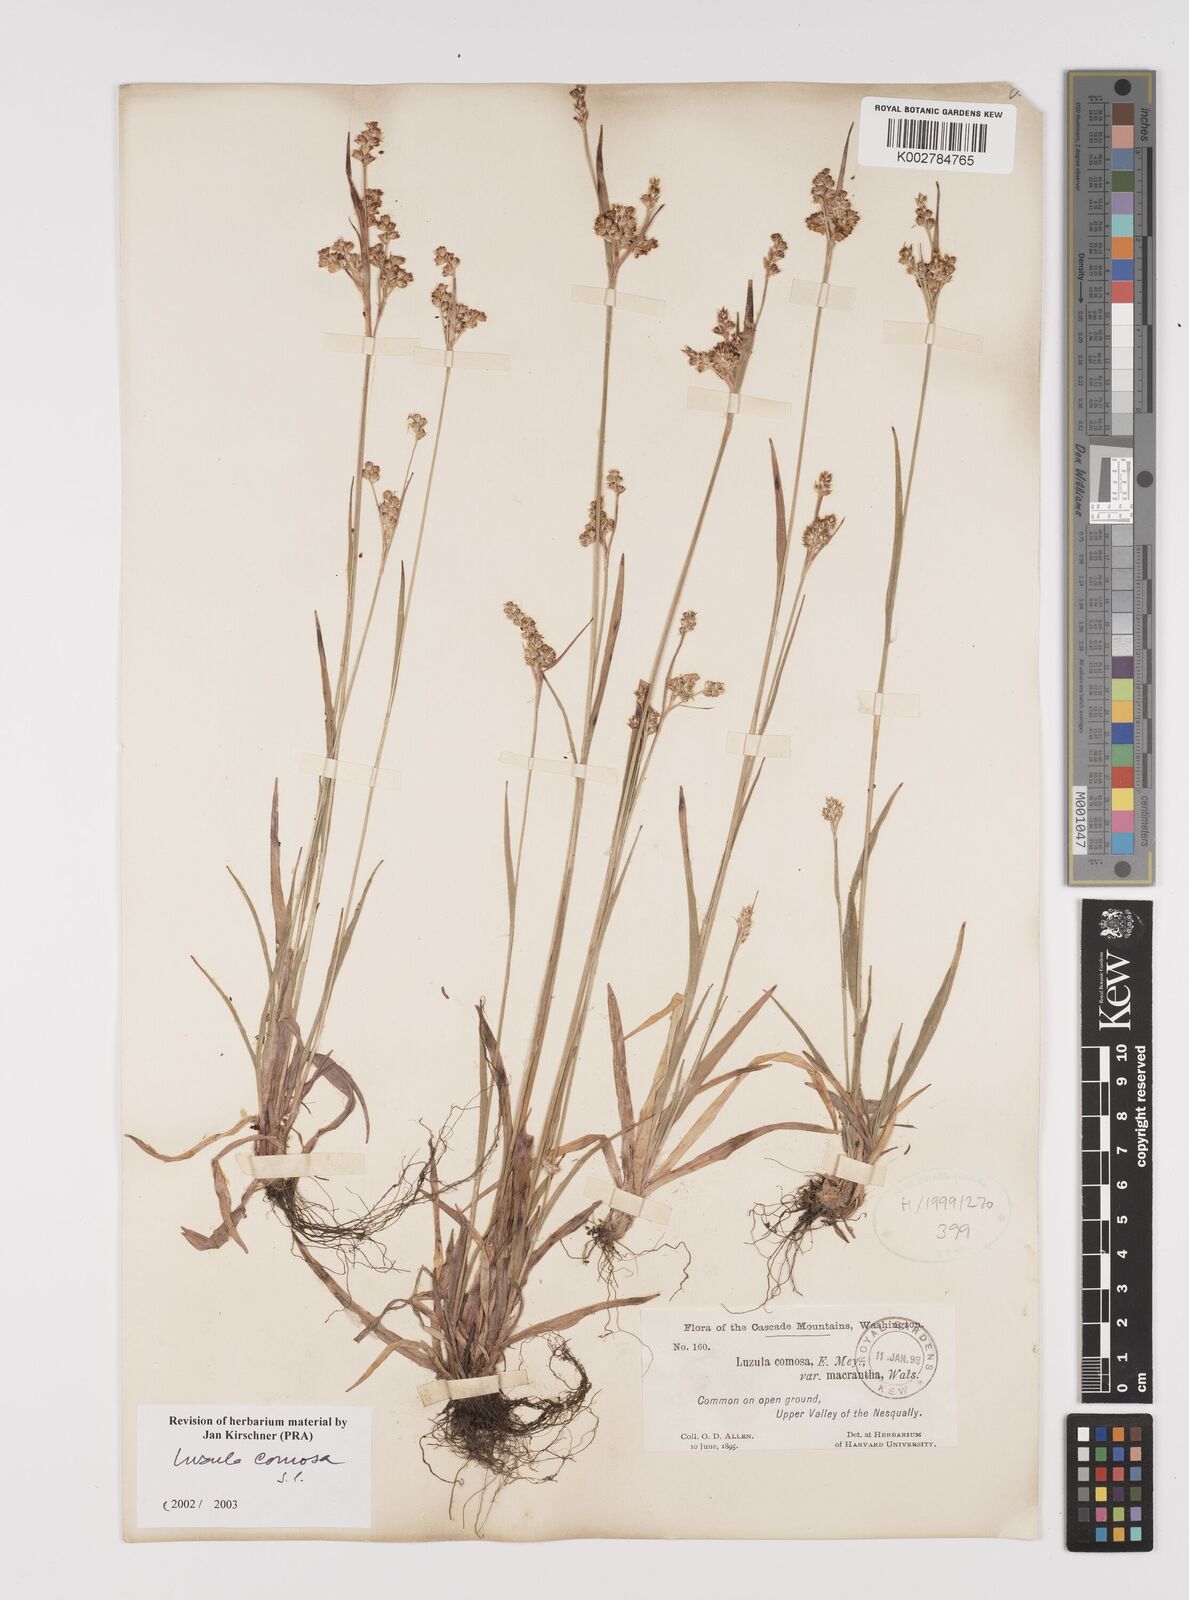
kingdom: Plantae
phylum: Tracheophyta
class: Liliopsida
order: Poales
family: Juncaceae
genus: Luzula
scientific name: Luzula comosa
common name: Pacific woodrush
